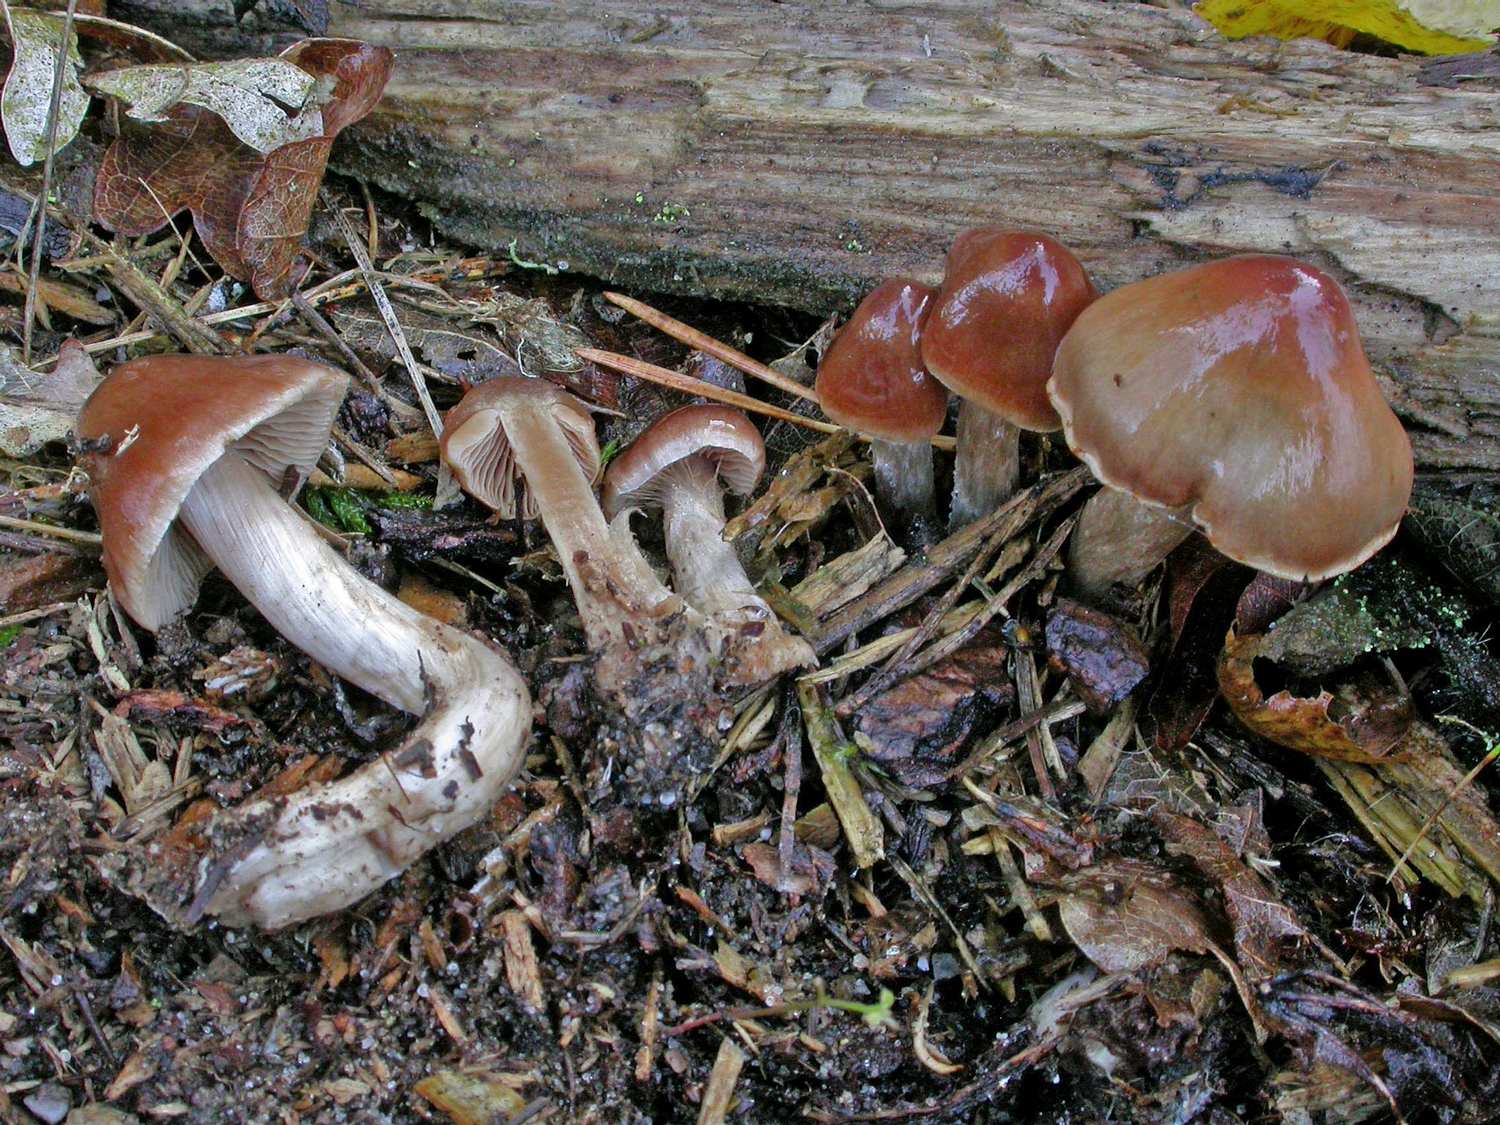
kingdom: Fungi
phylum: Basidiomycota
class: Agaricomycetes
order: Agaricales
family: Cortinariaceae
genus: Cortinarius
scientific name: Cortinarius leiocastaneus
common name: rosabrun slørhat
